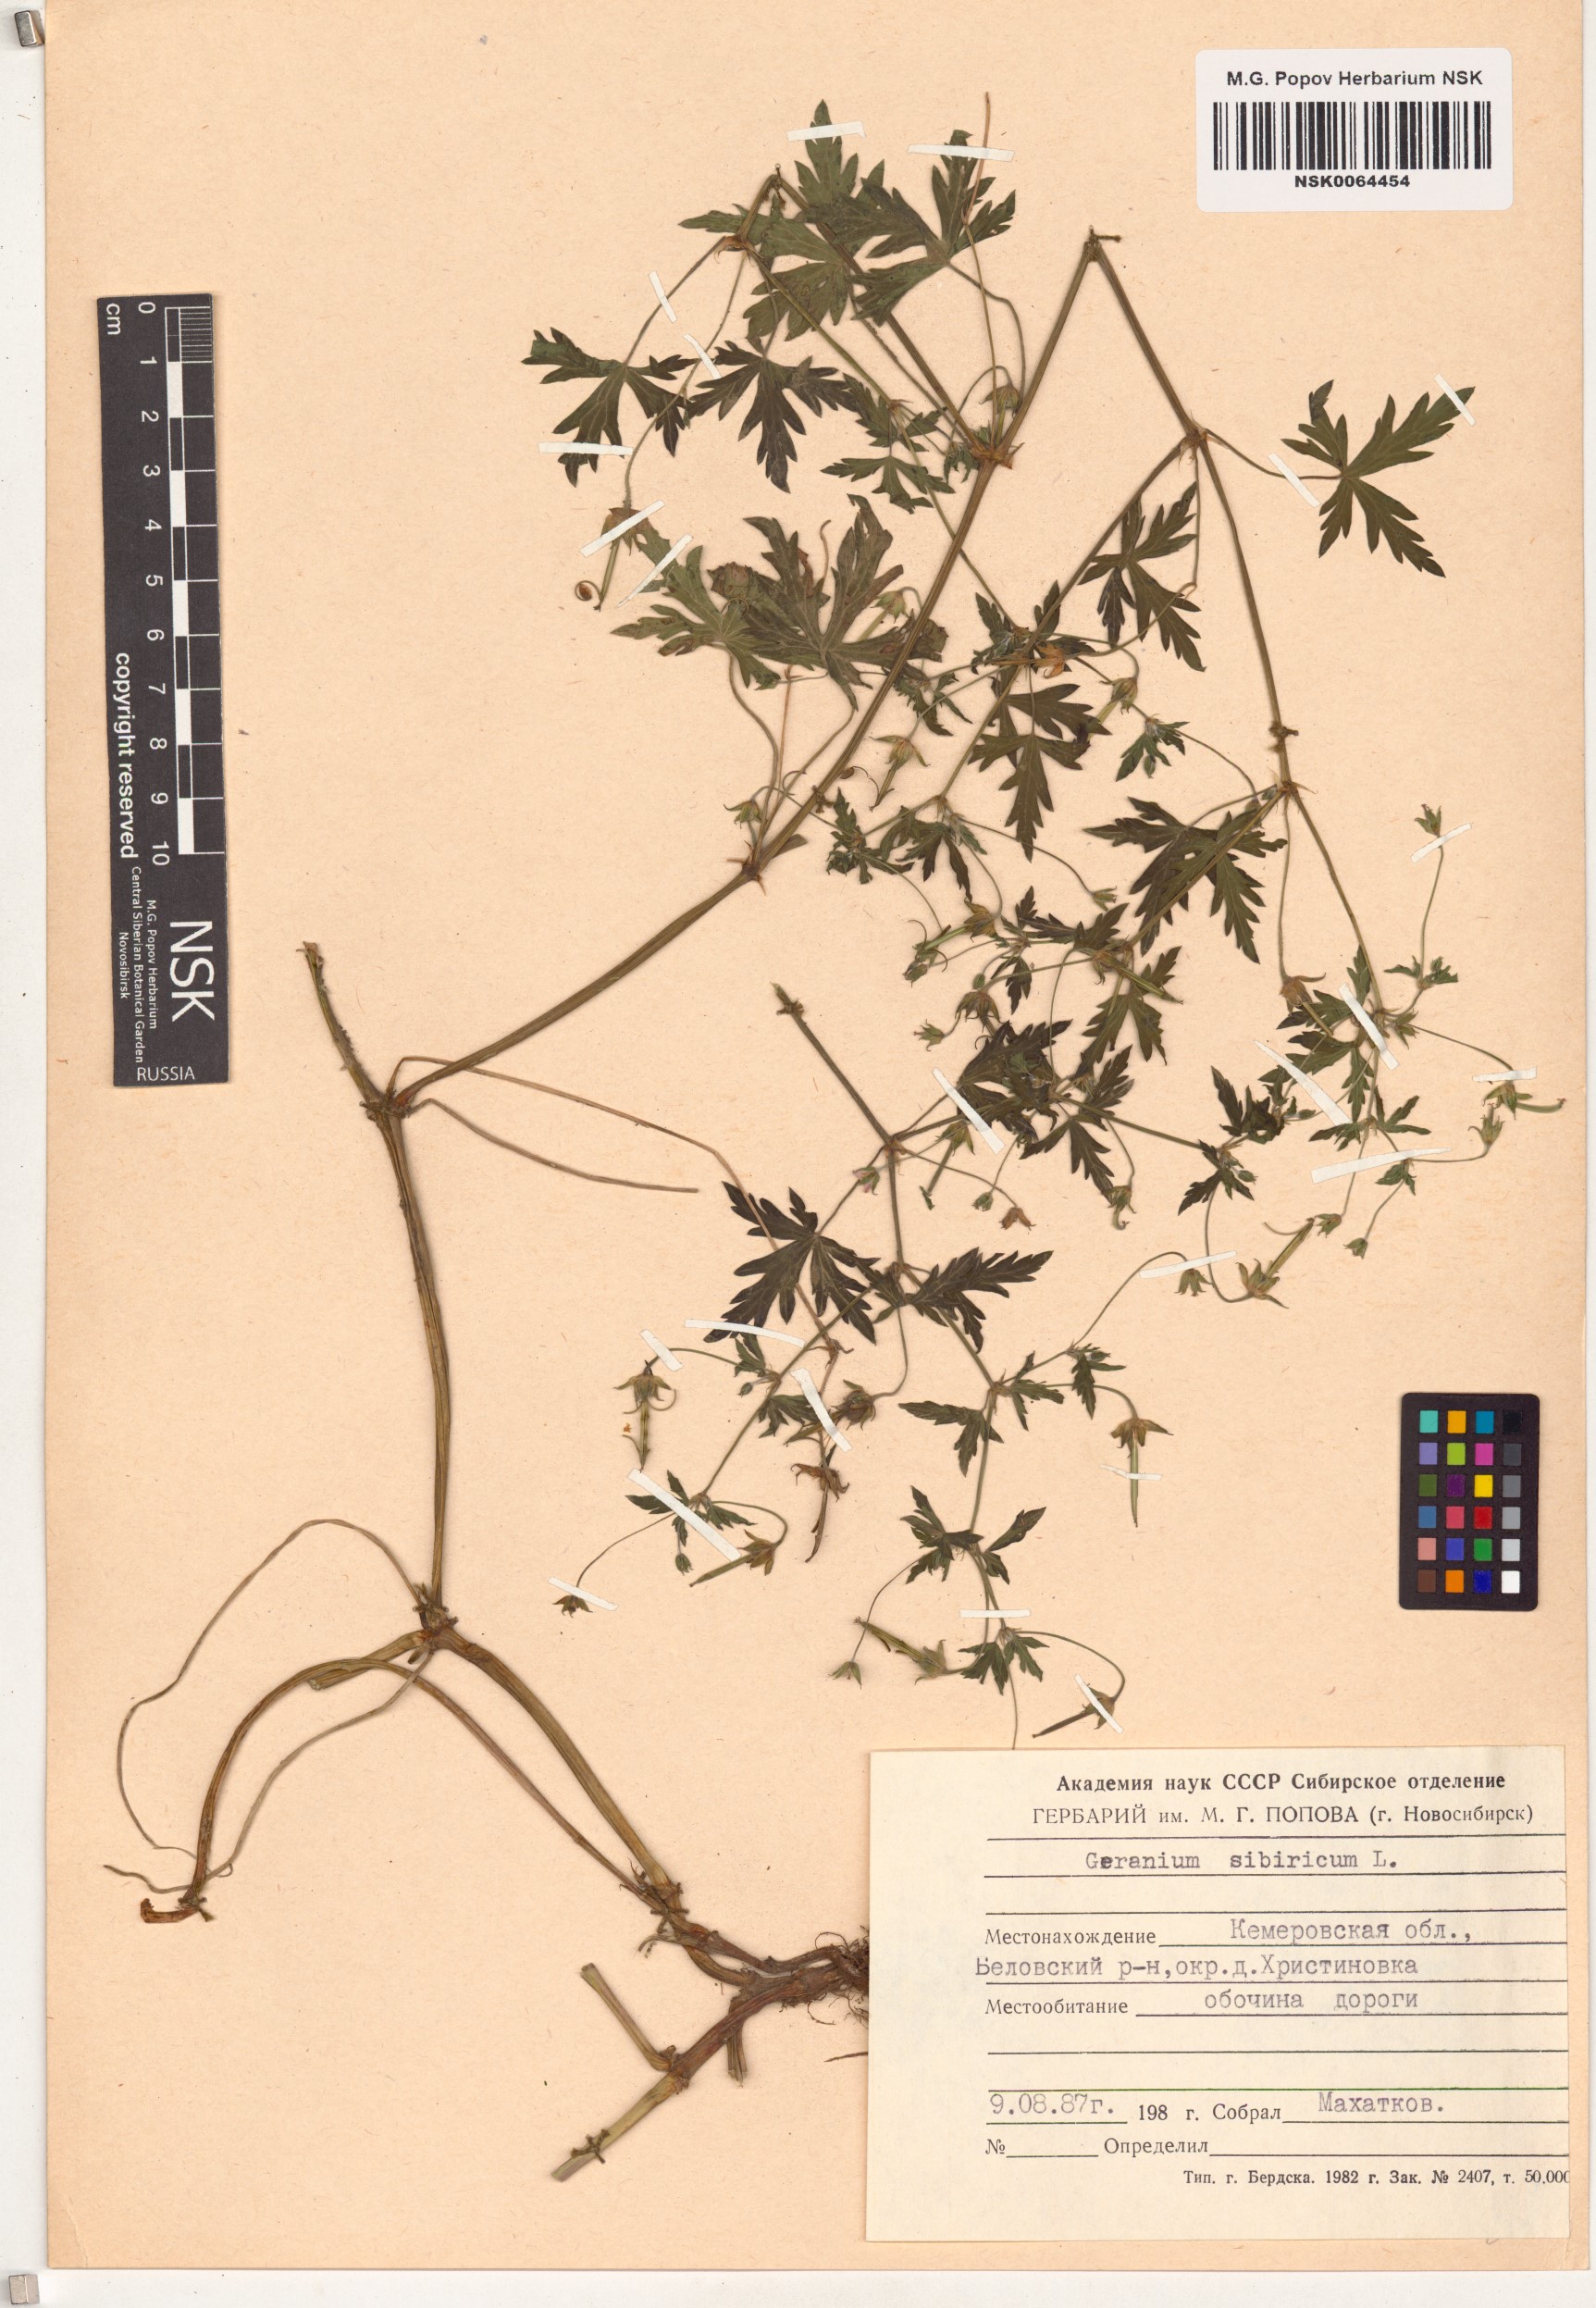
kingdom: Plantae
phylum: Tracheophyta
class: Magnoliopsida
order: Geraniales
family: Geraniaceae
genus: Geranium
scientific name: Geranium sibiricum
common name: Siberian crane's-bill
